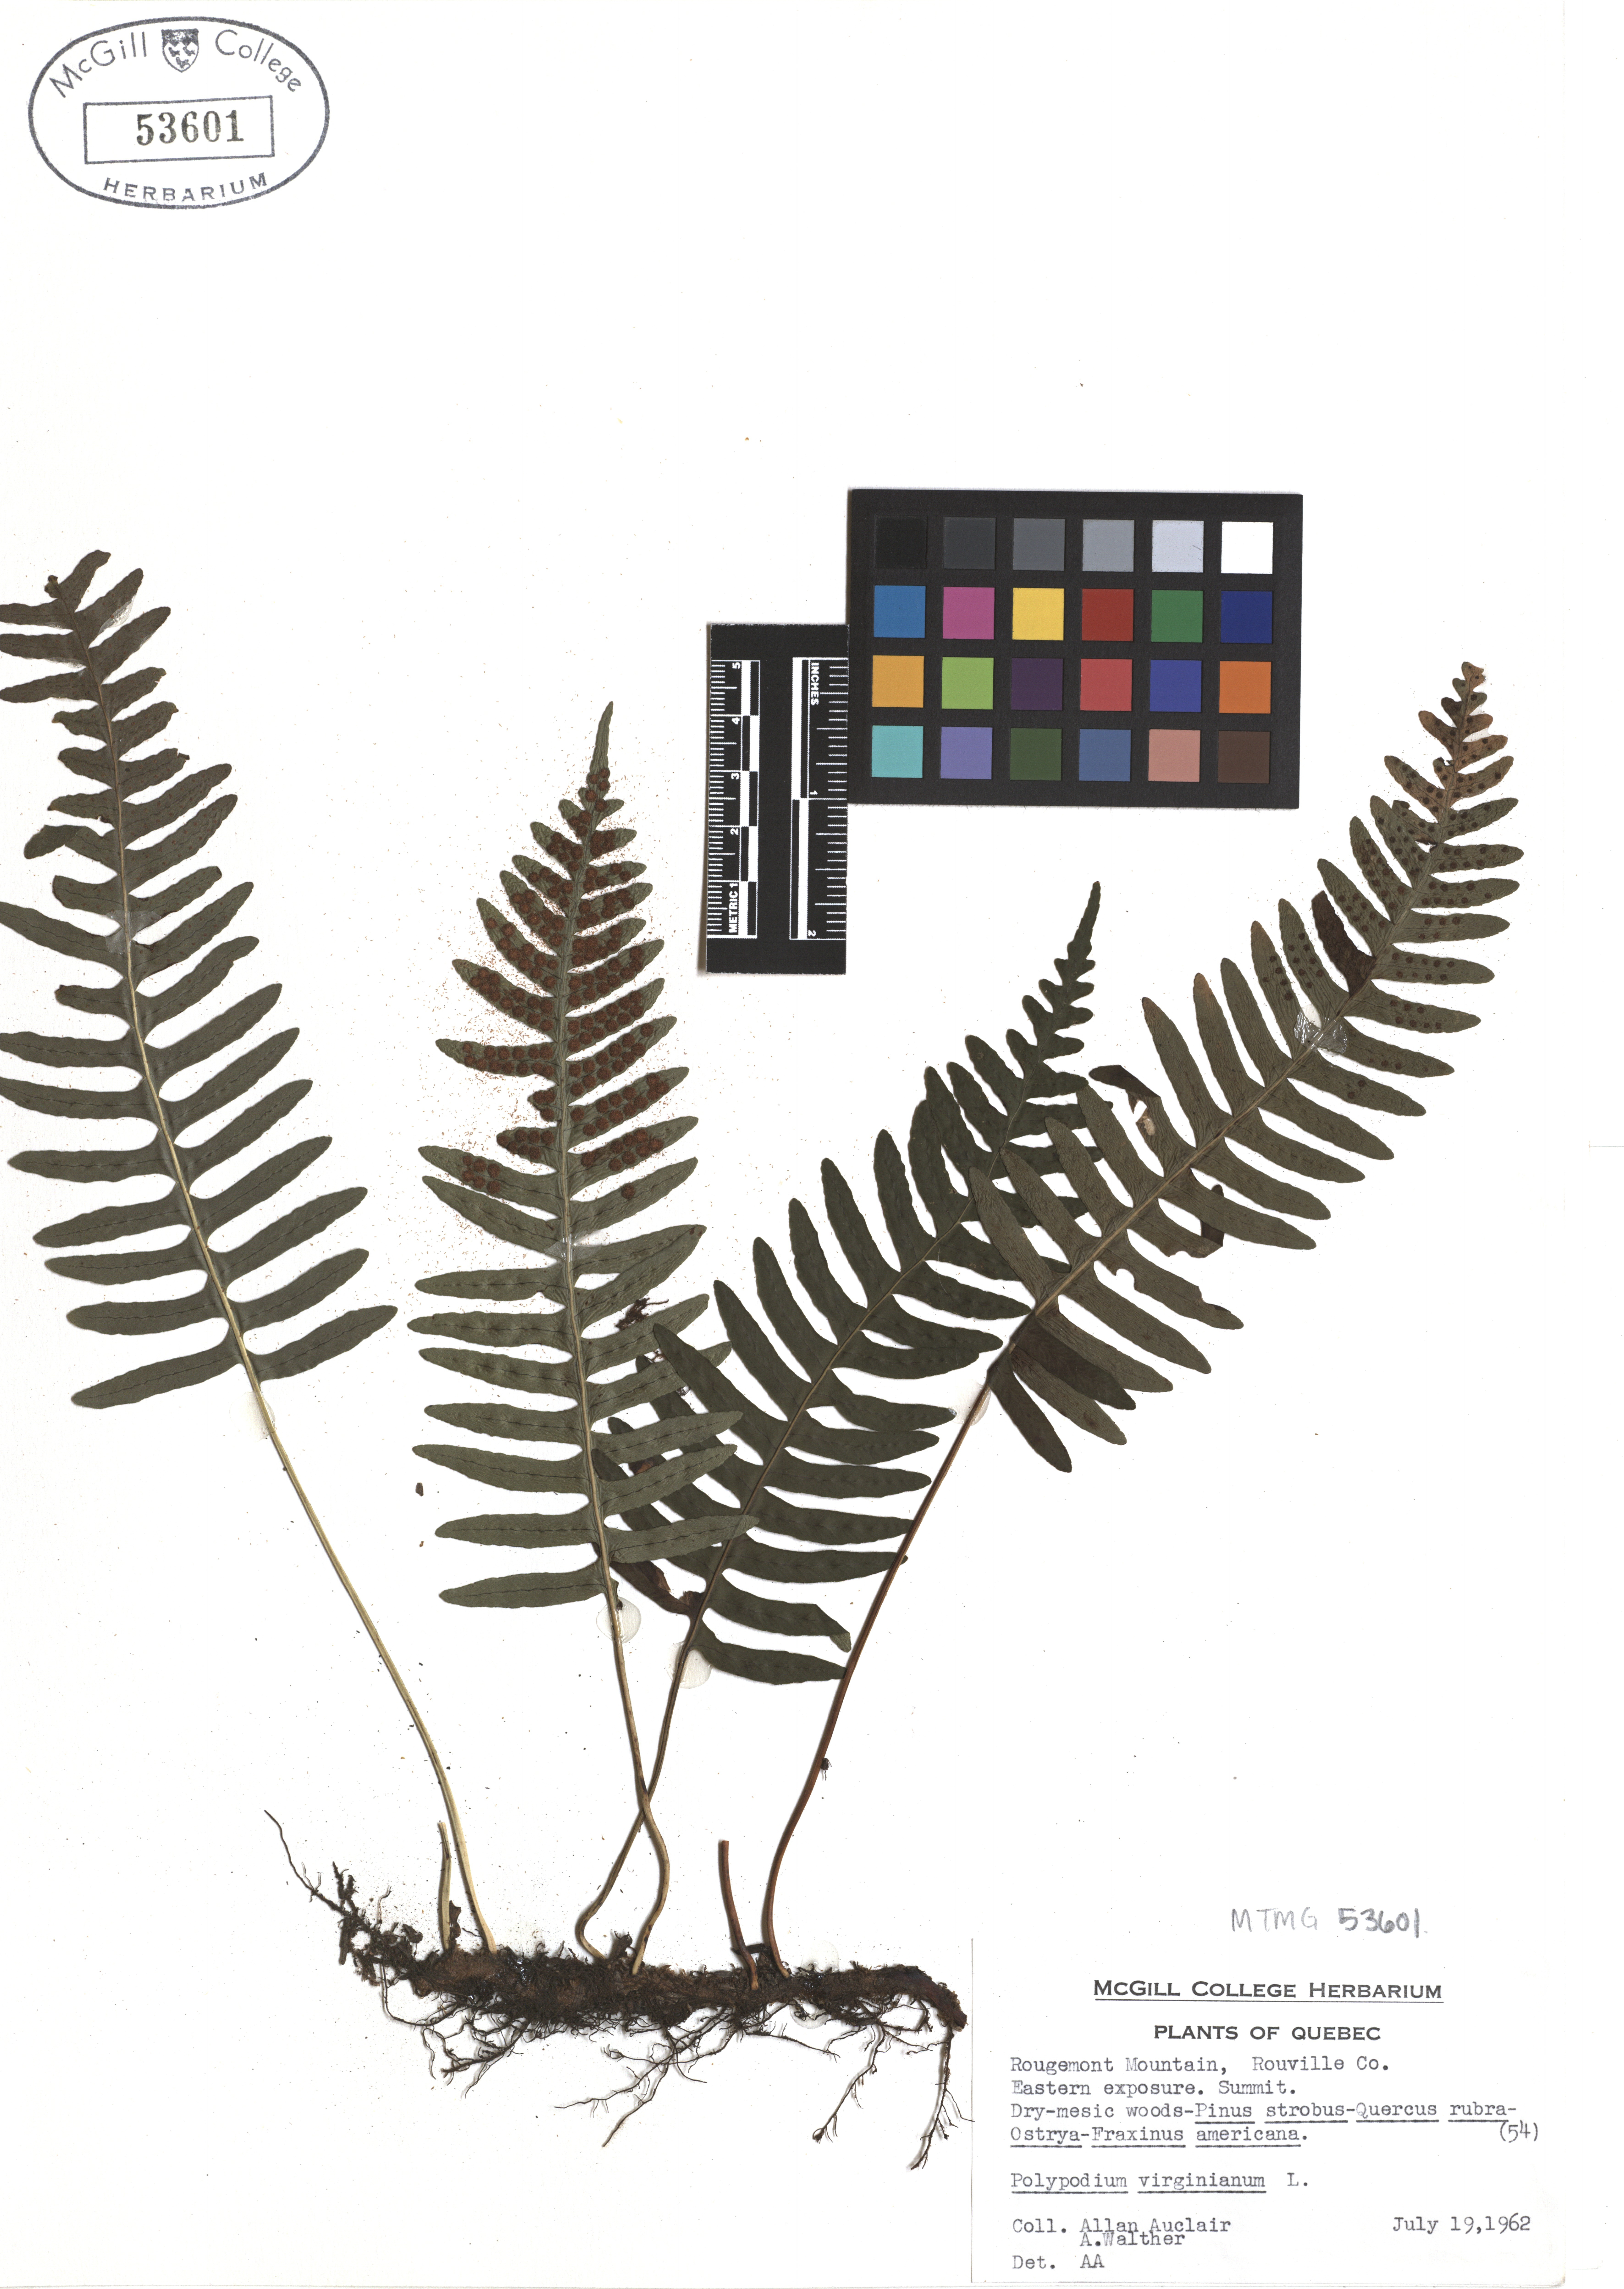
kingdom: Plantae
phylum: Tracheophyta
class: Polypodiopsida
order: Polypodiales
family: Polypodiaceae
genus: Polypodium
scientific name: Polypodium virginianum
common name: American wall fern
